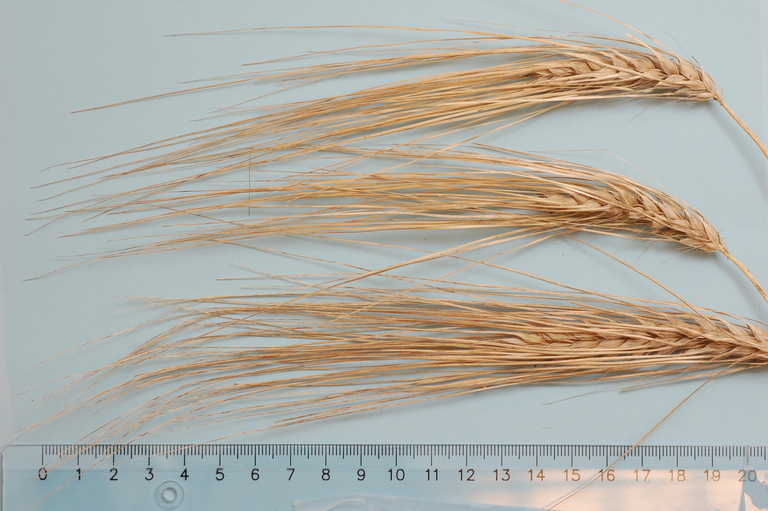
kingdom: Plantae
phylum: Tracheophyta
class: Liliopsida
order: Poales
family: Poaceae
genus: Hordeum
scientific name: Hordeum vulgare
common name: Common barley
